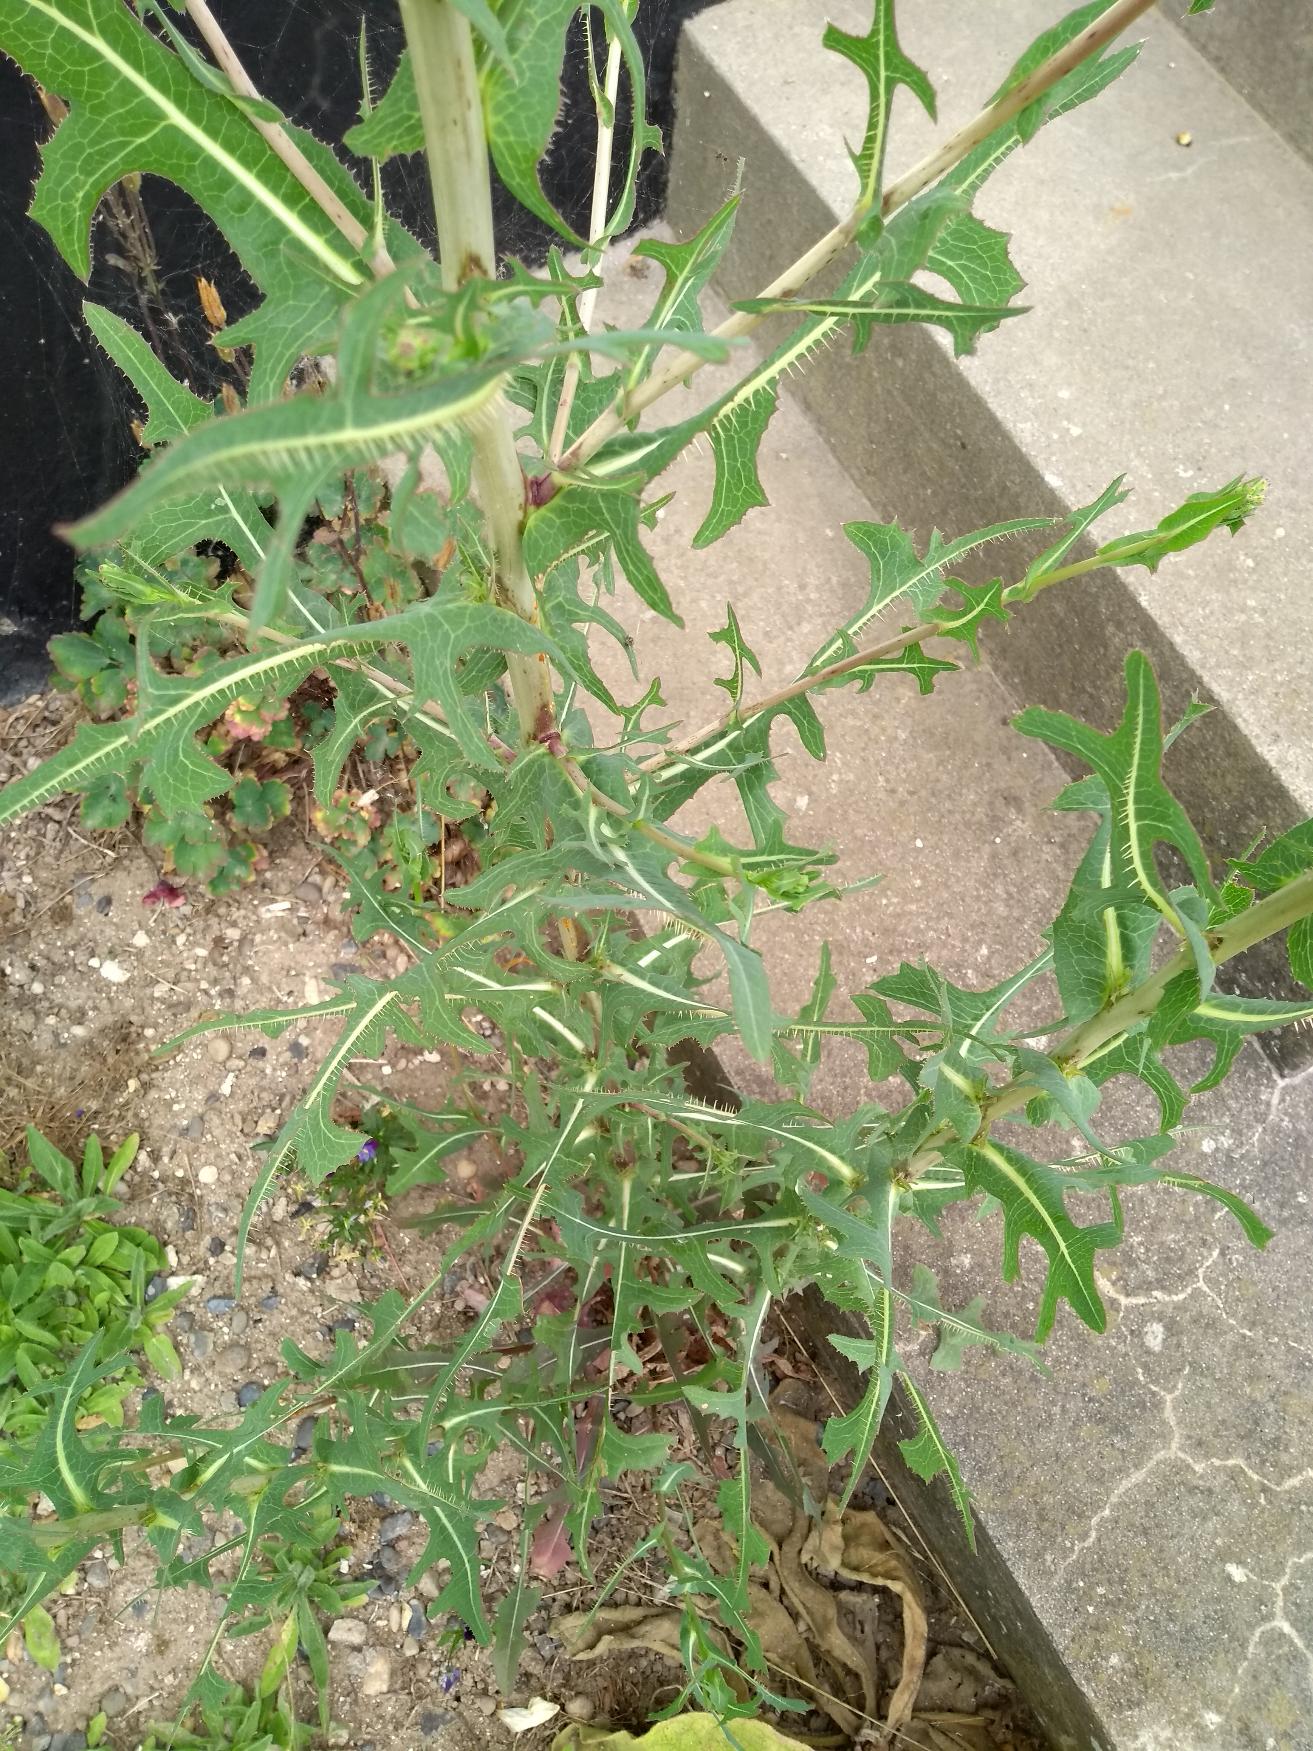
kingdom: Plantae
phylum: Tracheophyta
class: Magnoliopsida
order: Asterales
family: Asteraceae
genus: Lactuca
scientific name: Lactuca serriola
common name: Tornet salat
